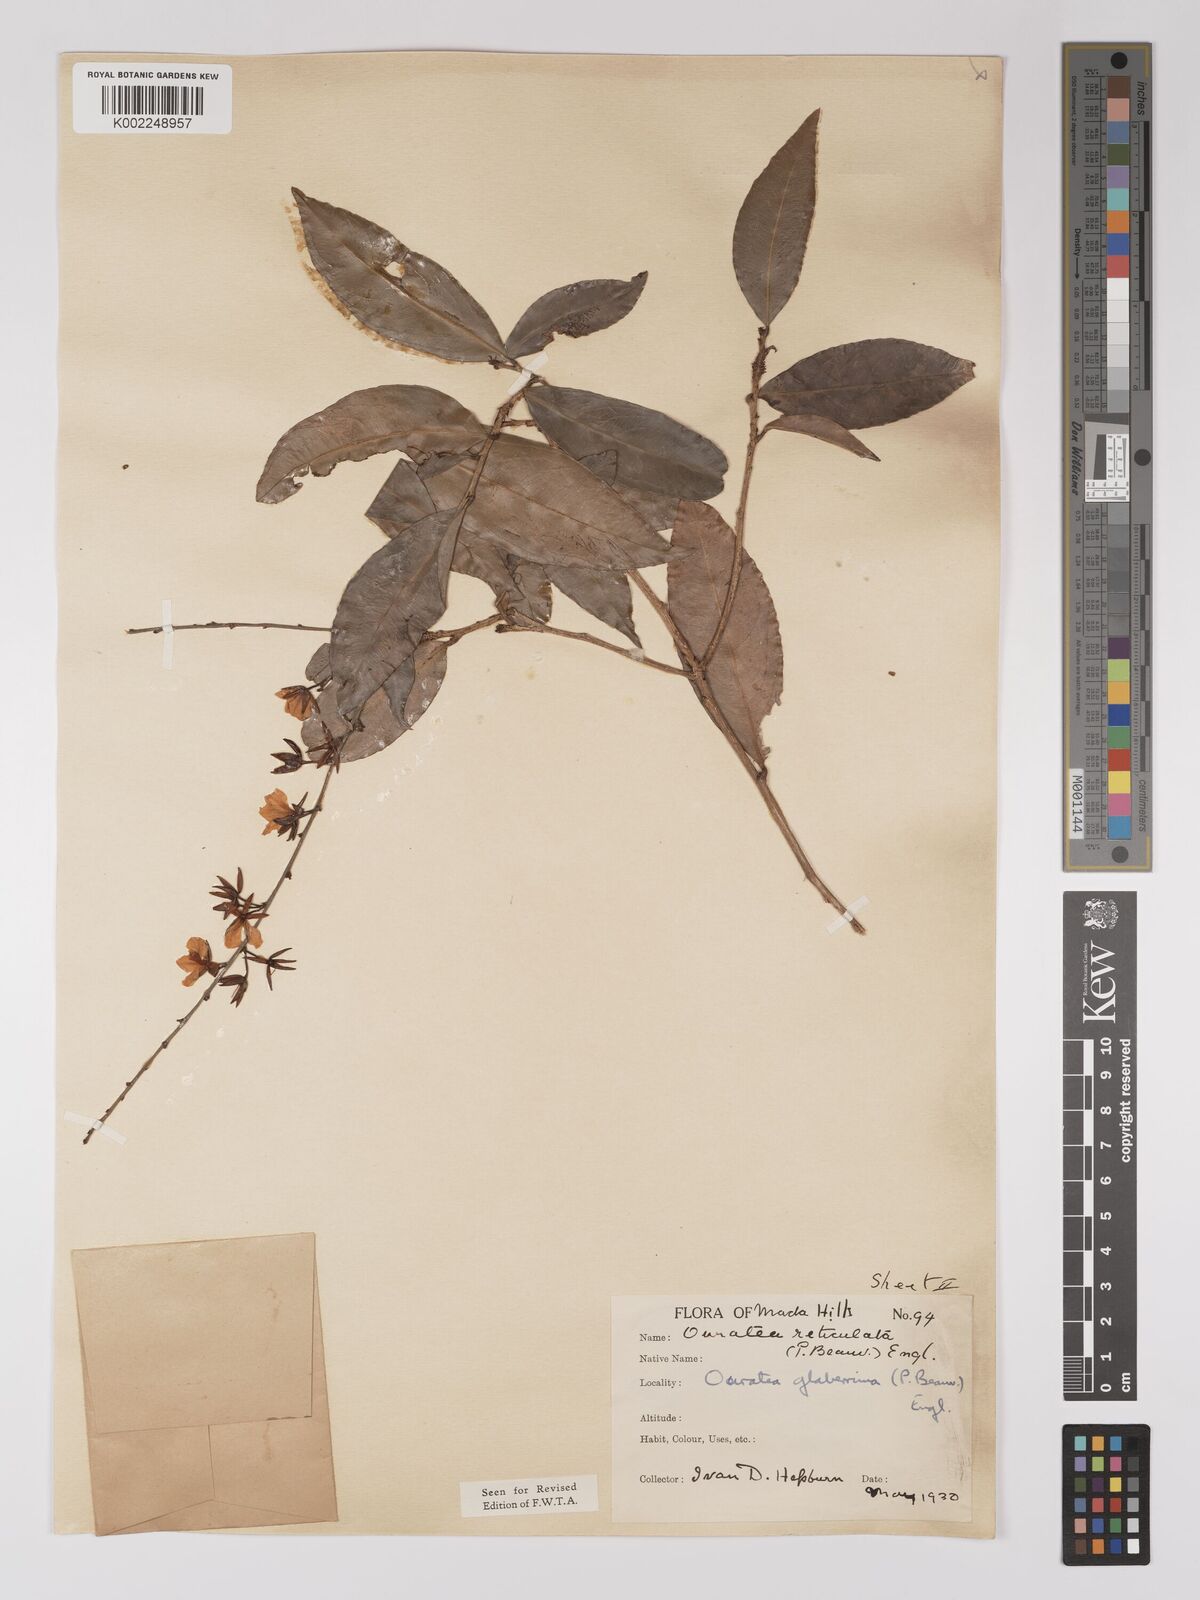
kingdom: Plantae
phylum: Tracheophyta
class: Magnoliopsida
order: Malpighiales
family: Ochnaceae
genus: Campylospermum
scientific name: Campylospermum glaberrimum
